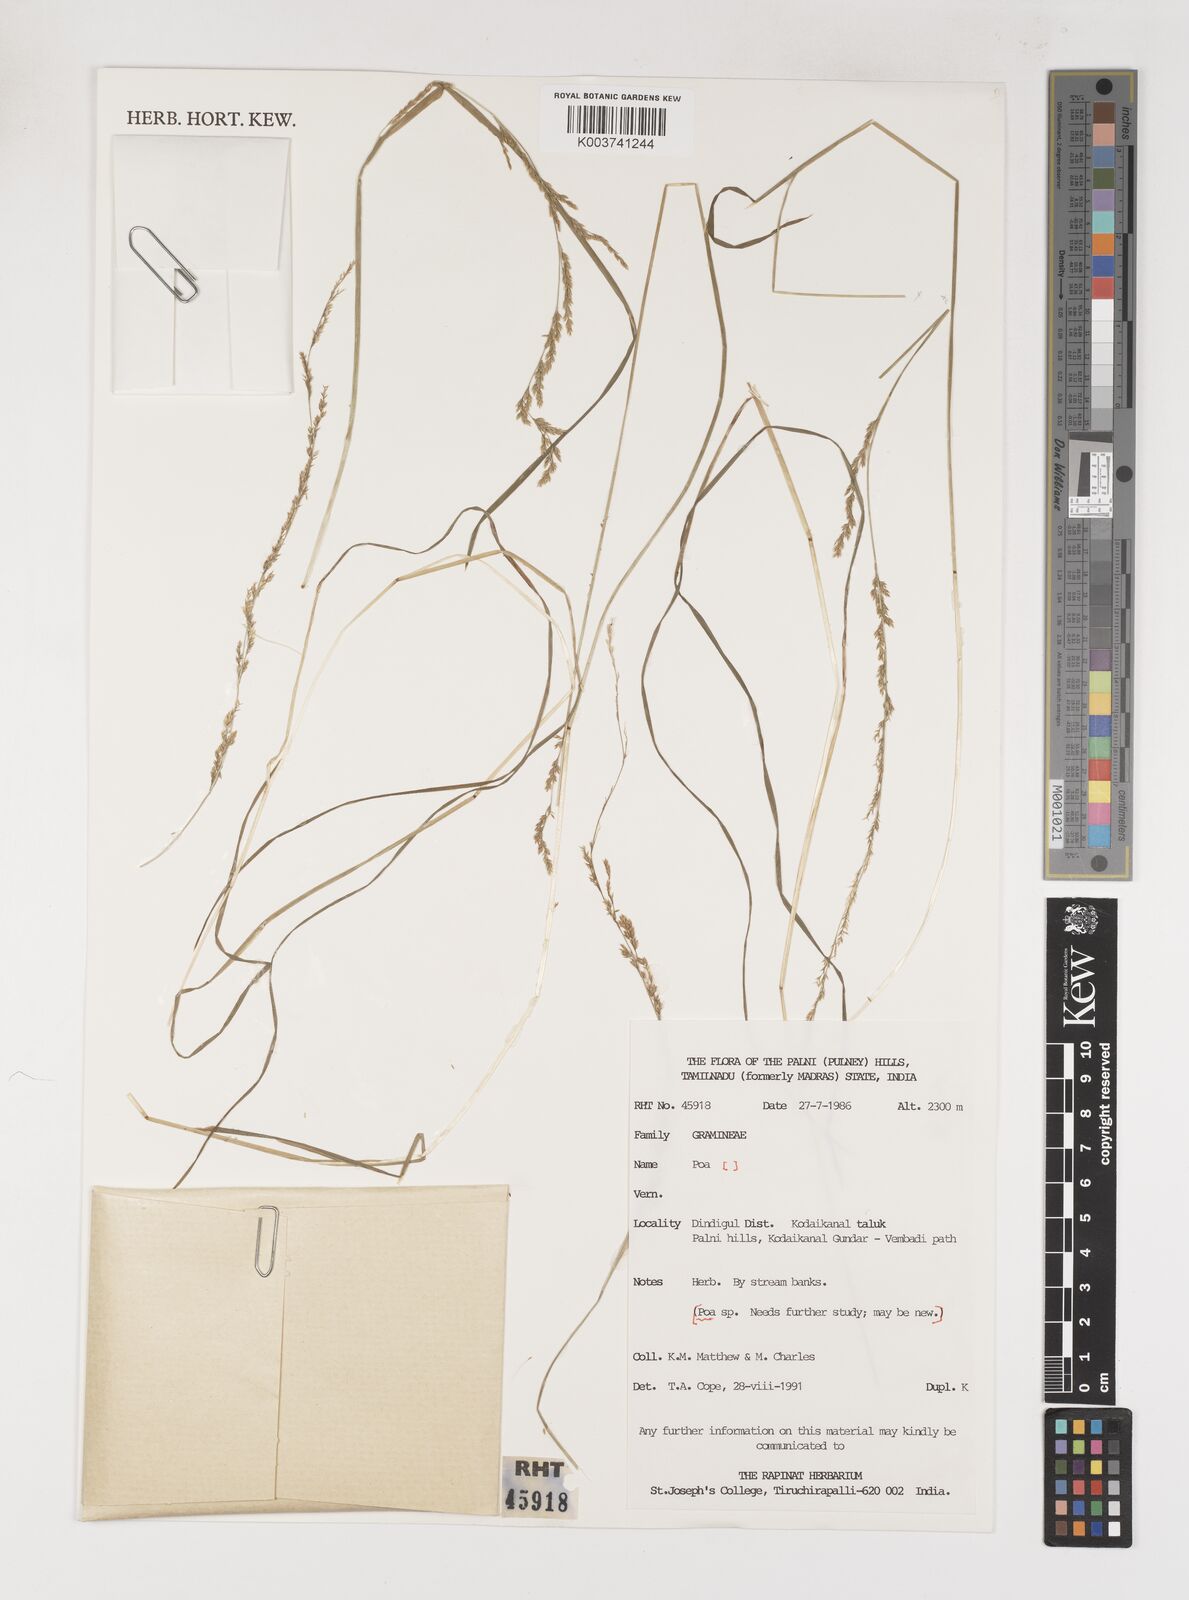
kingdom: Plantae
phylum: Tracheophyta
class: Liliopsida
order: Poales
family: Poaceae
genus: Poa
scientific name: Poa
